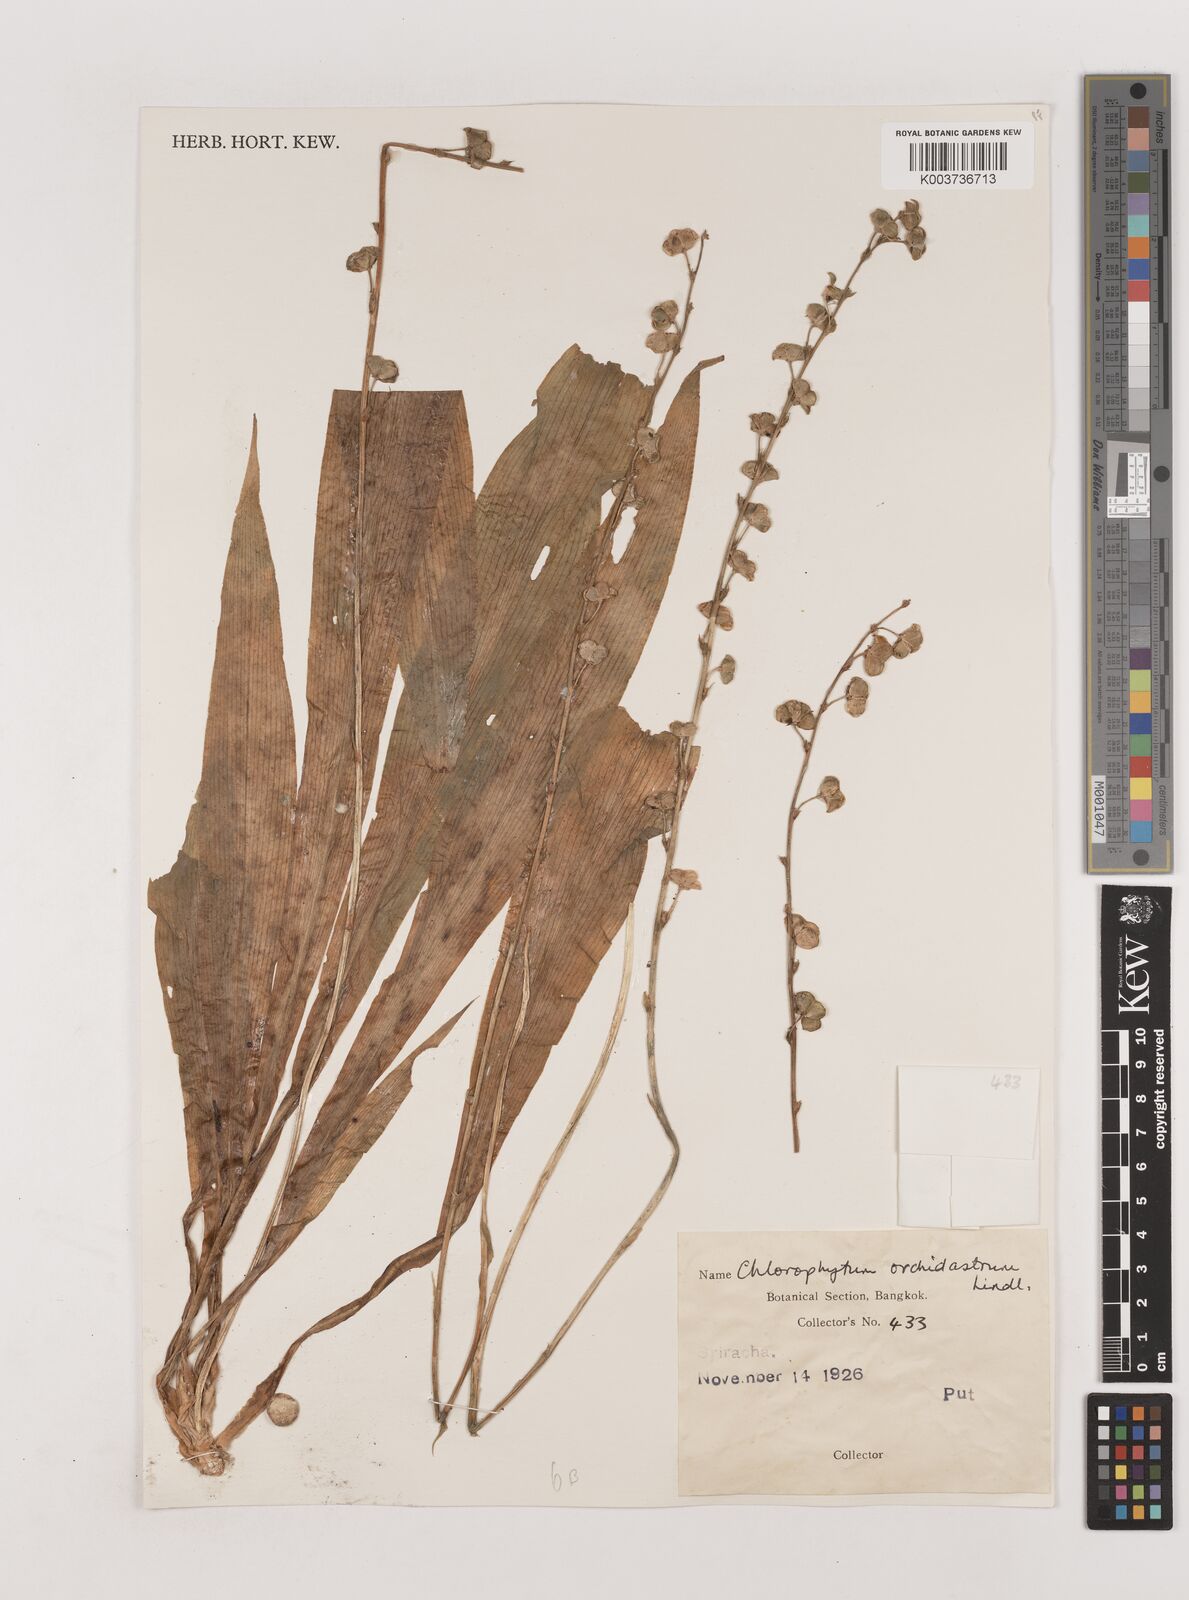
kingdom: Plantae
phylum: Tracheophyta
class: Liliopsida
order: Asparagales
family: Asparagaceae
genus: Chlorophytum
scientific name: Chlorophytum orchidastrum
